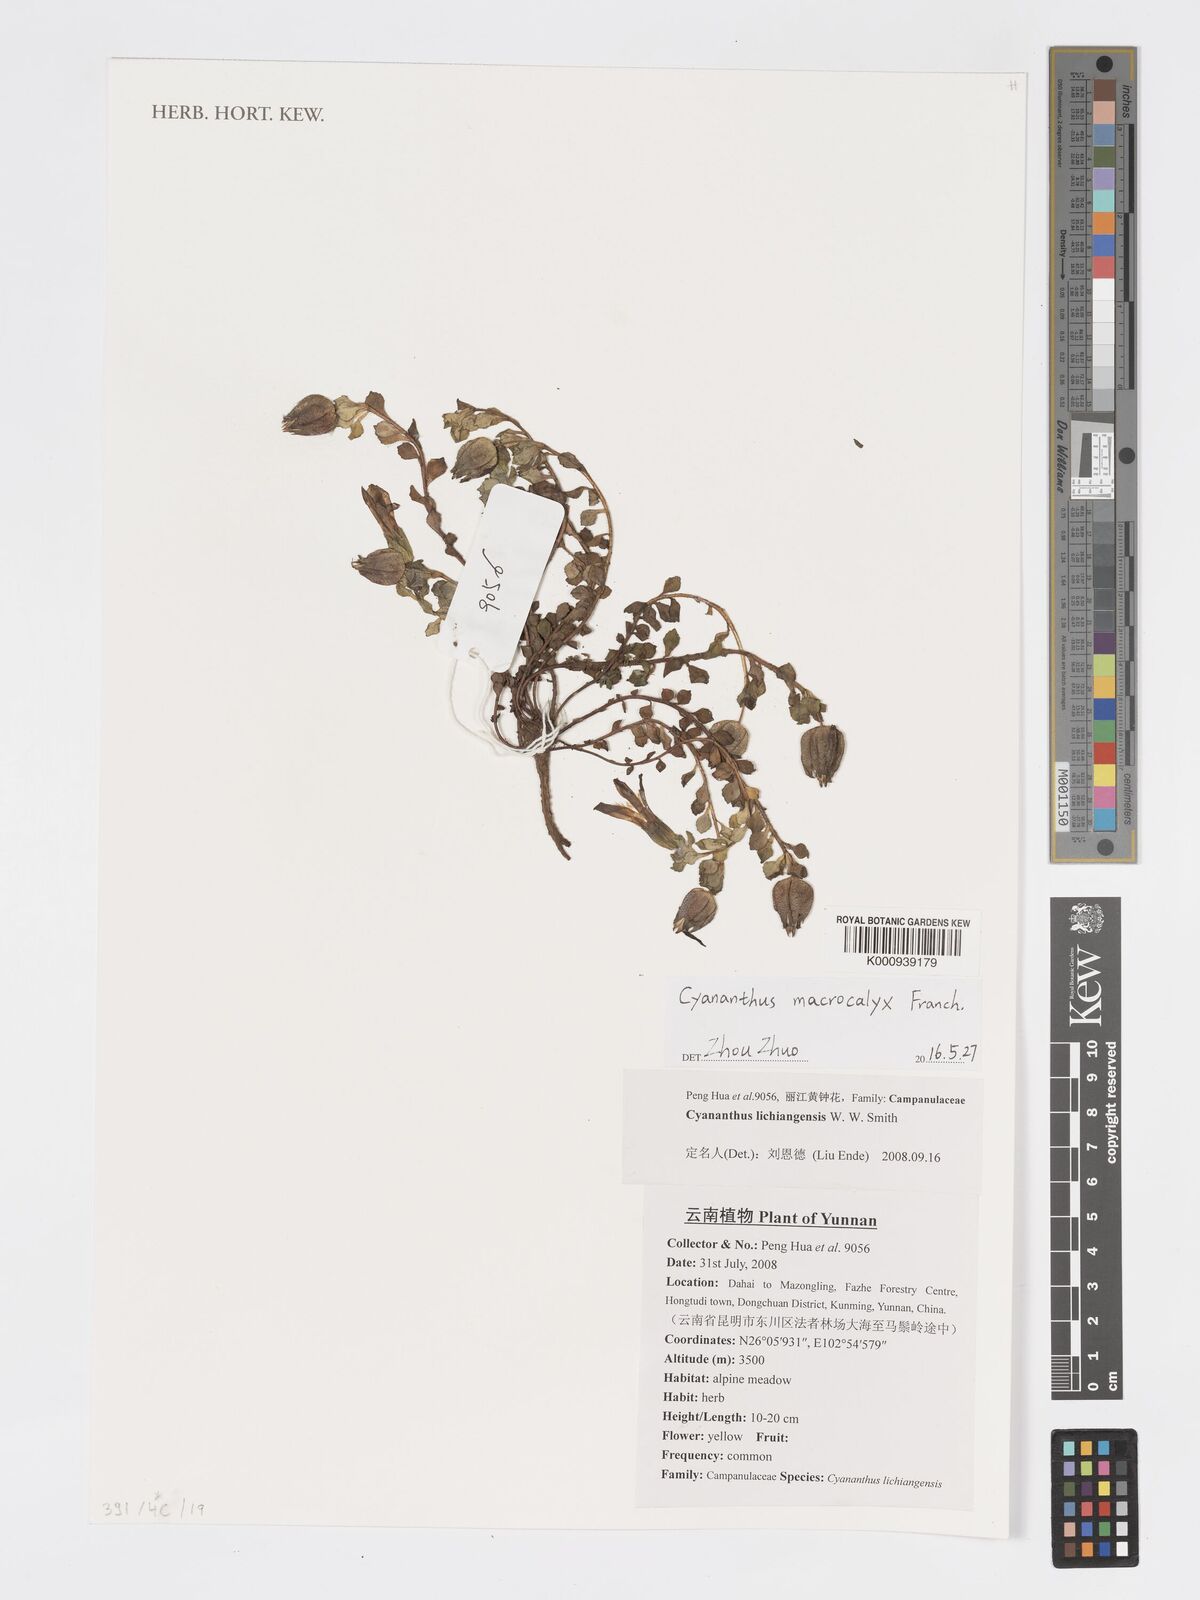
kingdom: Plantae
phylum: Tracheophyta
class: Magnoliopsida
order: Asterales
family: Campanulaceae
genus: Cyananthus
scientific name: Cyananthus macrocalyx
